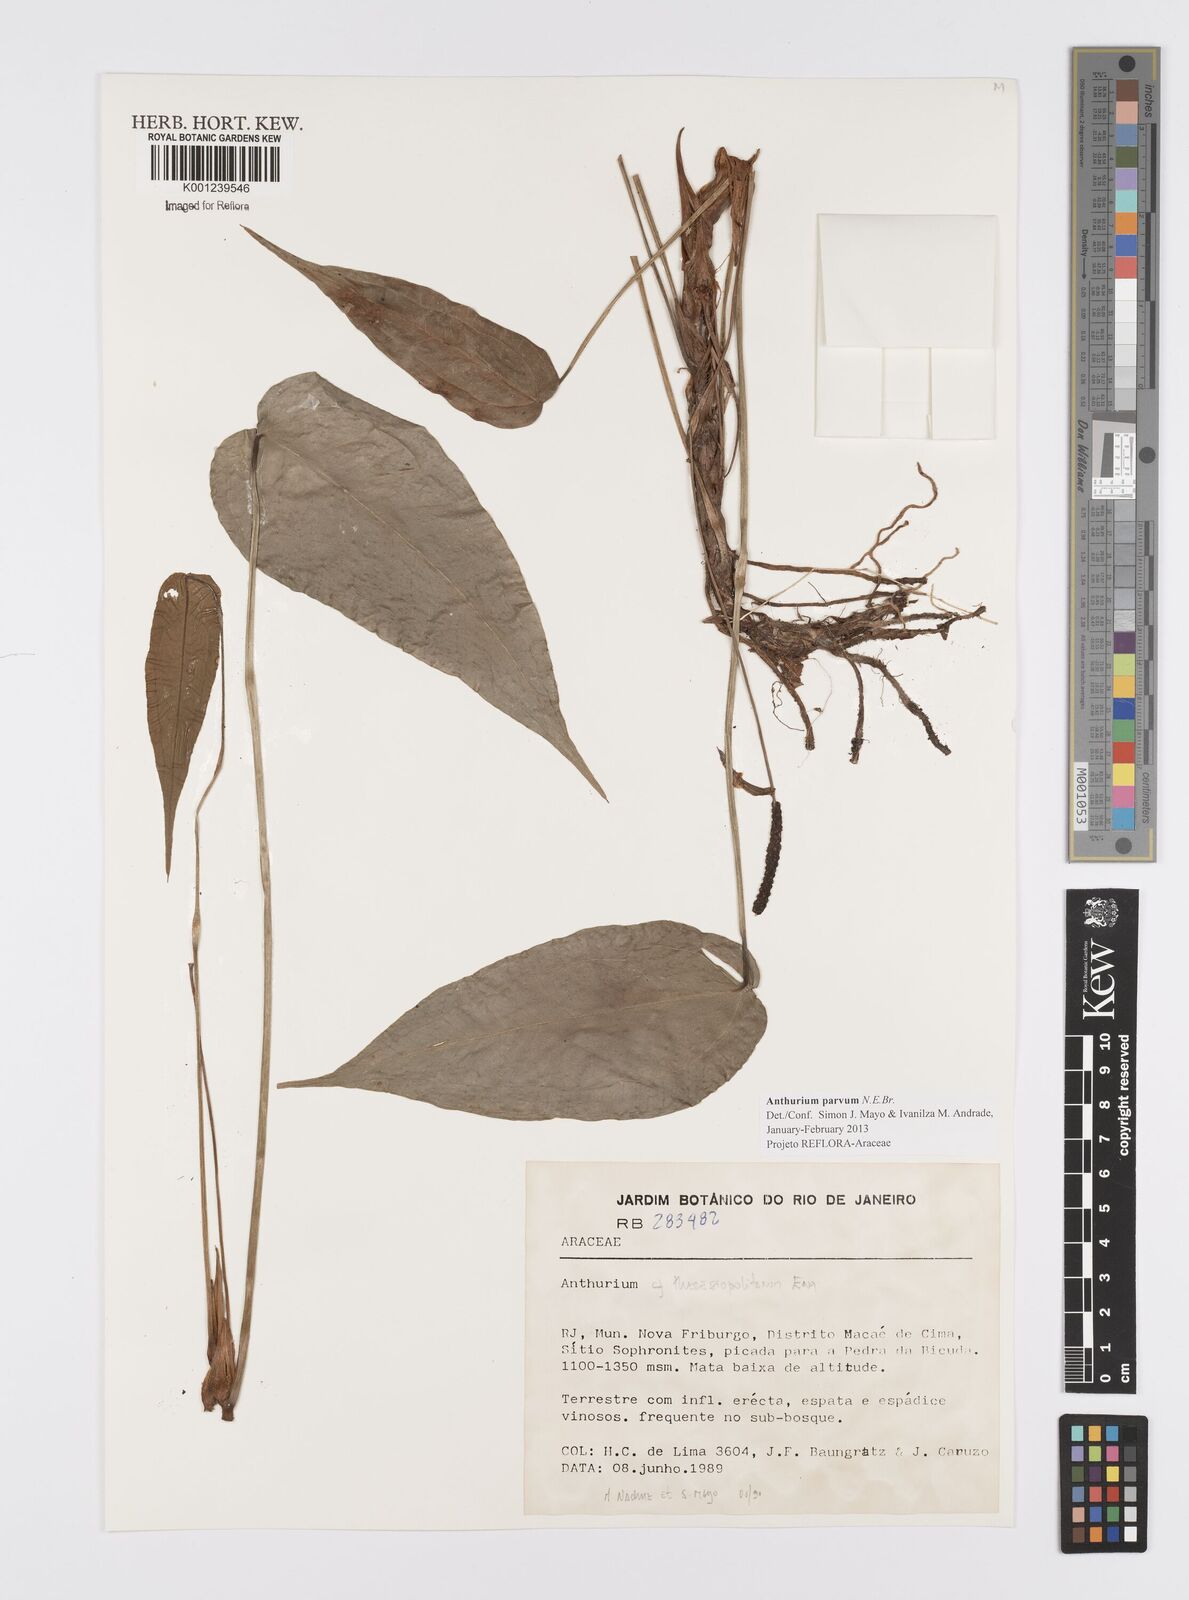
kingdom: Plantae
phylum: Tracheophyta
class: Liliopsida
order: Alismatales
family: Araceae
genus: Anthurium
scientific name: Anthurium parvum
